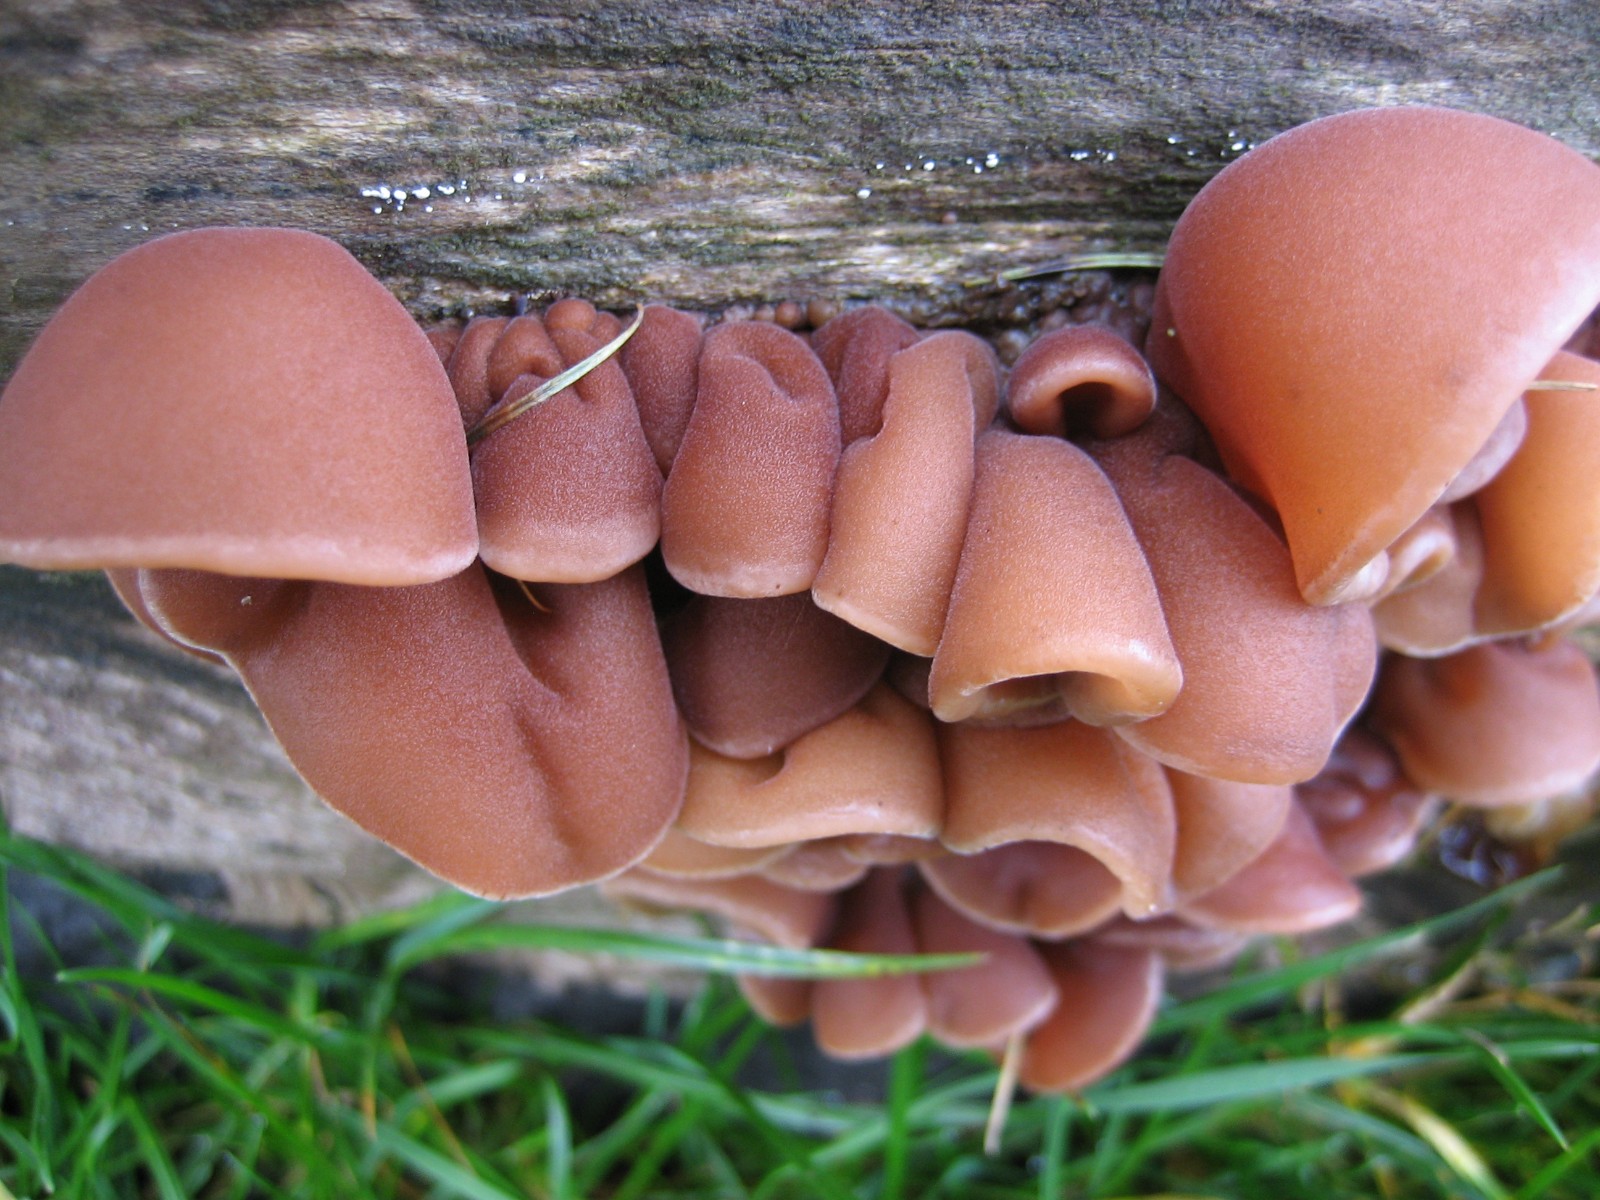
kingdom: Fungi
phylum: Basidiomycota
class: Agaricomycetes
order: Auriculariales
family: Auriculariaceae
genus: Auricularia
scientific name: Auricularia auricula-judae
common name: almindelig judasøre
